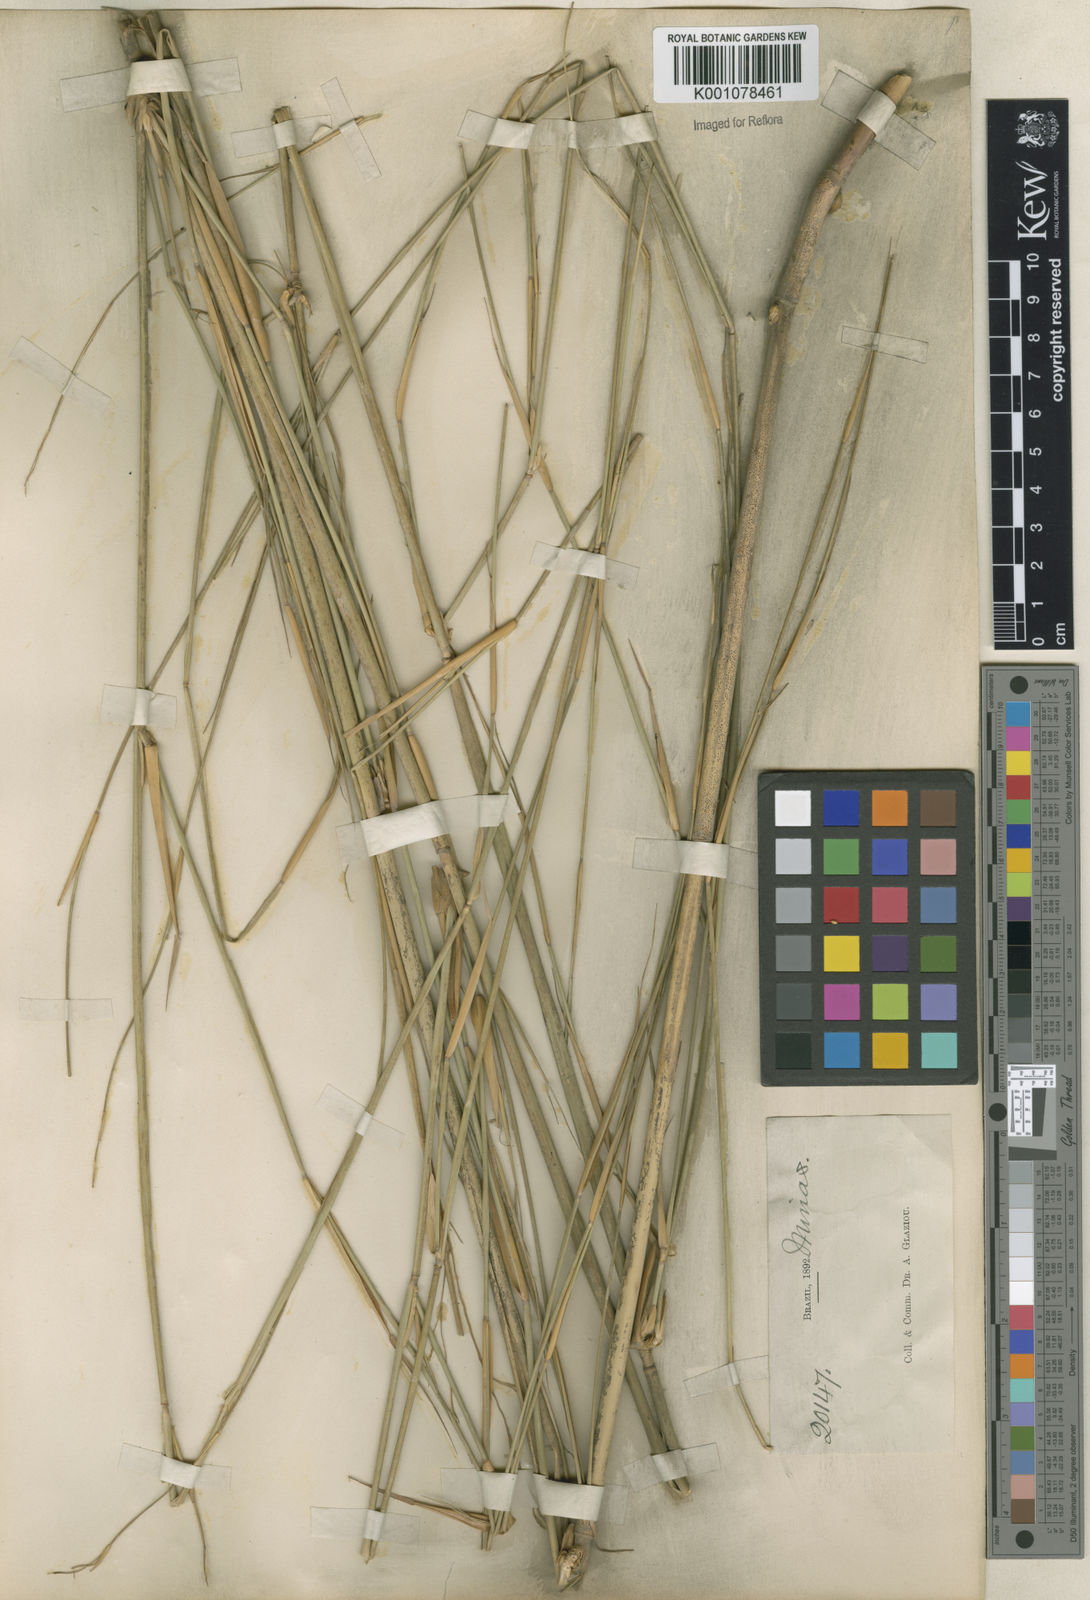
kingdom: Plantae
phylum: Tracheophyta
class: Liliopsida
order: Poales
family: Poaceae
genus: Panicum
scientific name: Panicum tricholaenoides
